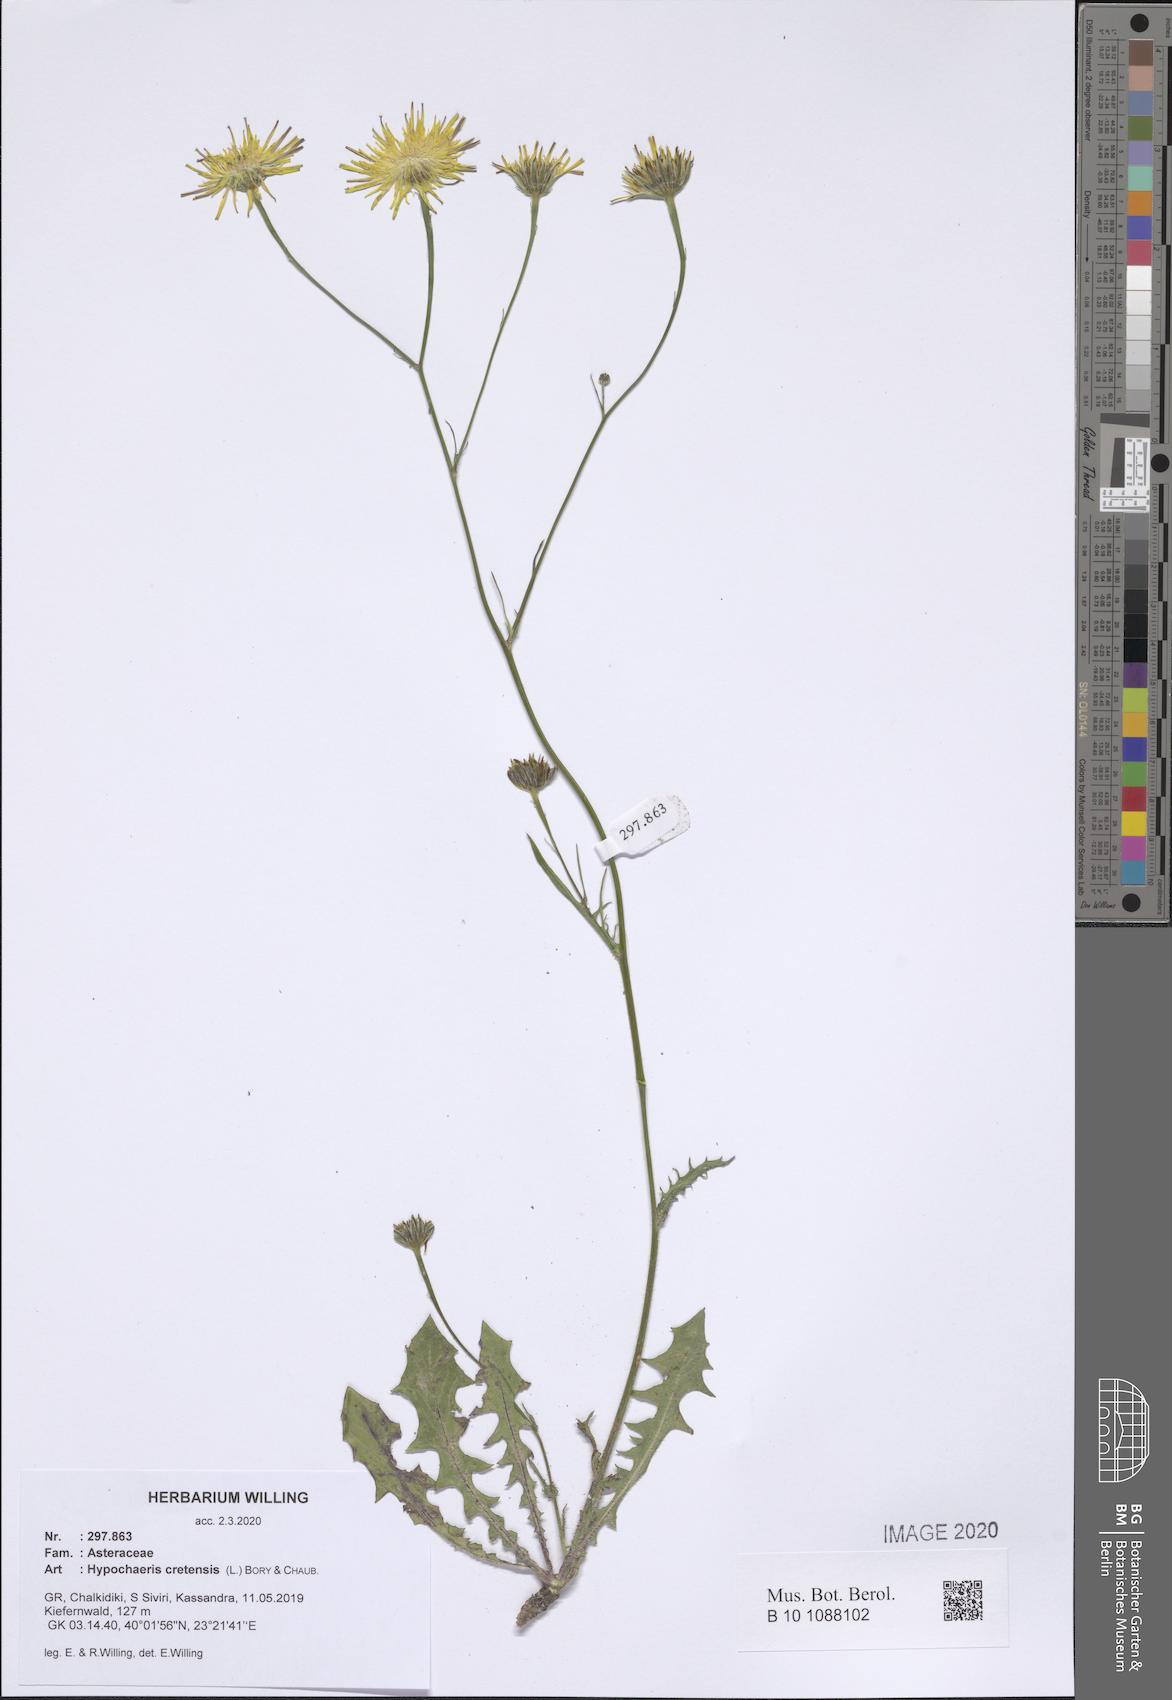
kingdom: Plantae
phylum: Tracheophyta
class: Magnoliopsida
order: Asterales
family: Asteraceae
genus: Hypochaeris
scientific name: Hypochaeris cretensis
